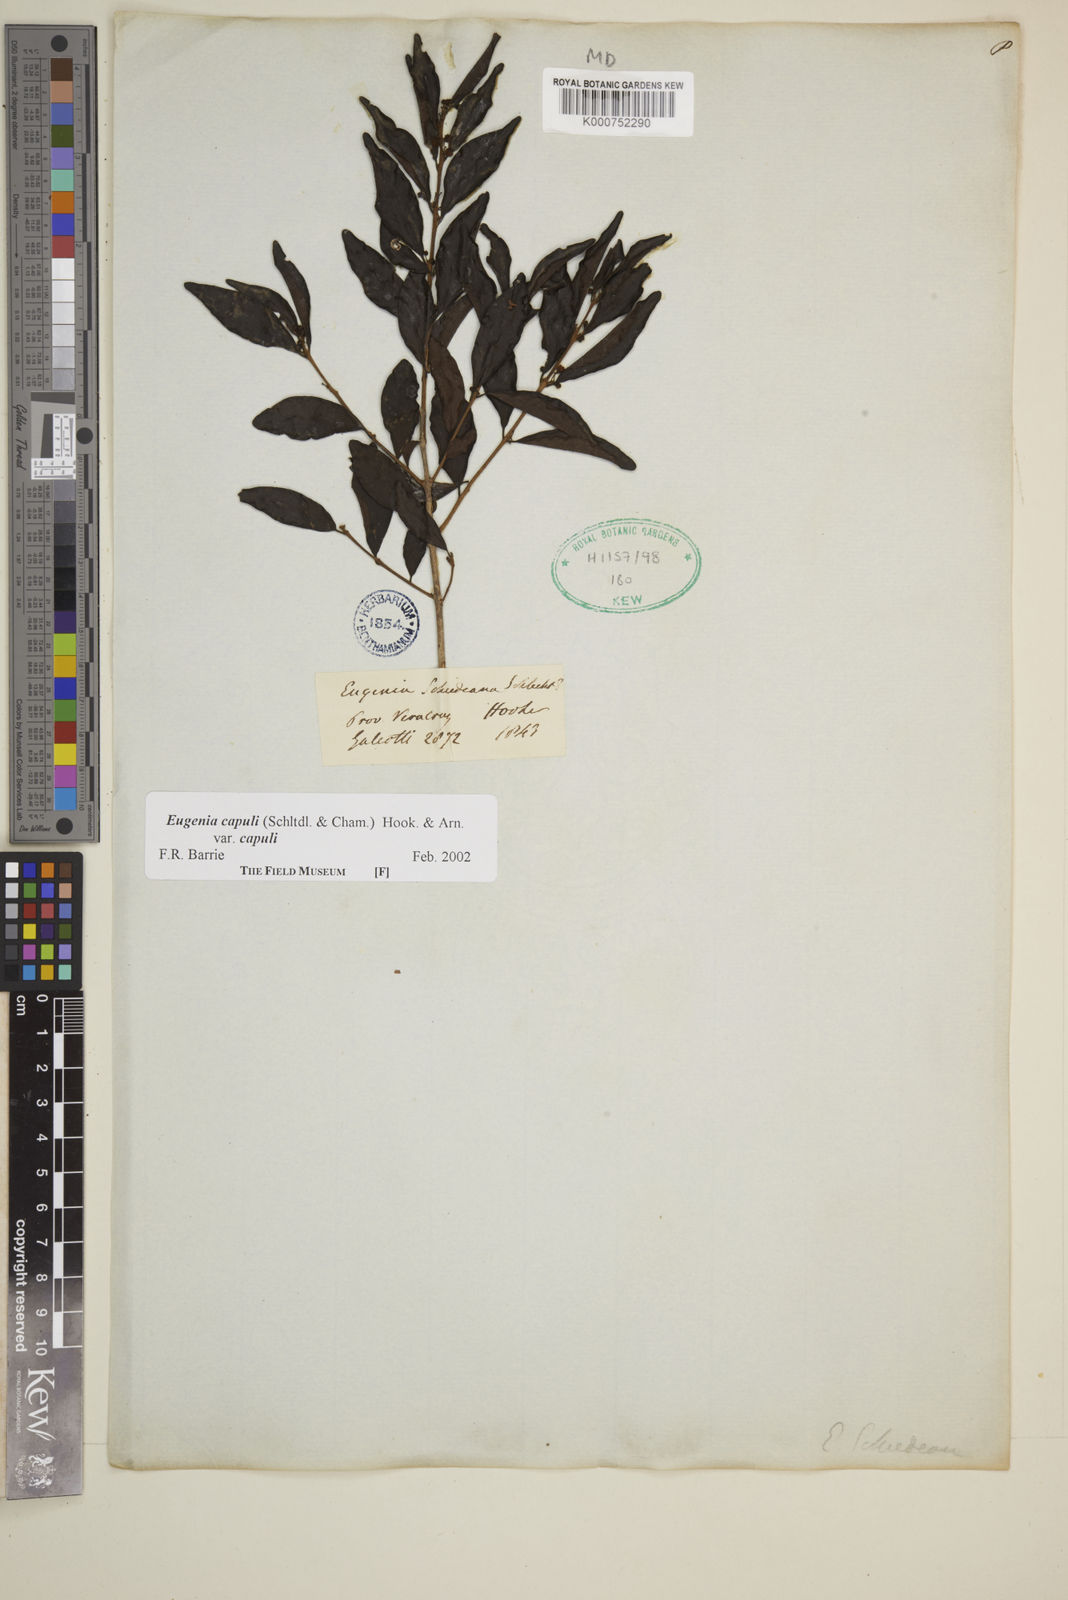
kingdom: Plantae
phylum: Tracheophyta
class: Magnoliopsida
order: Myrtales
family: Myrtaceae
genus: Eugenia
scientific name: Eugenia capuli
